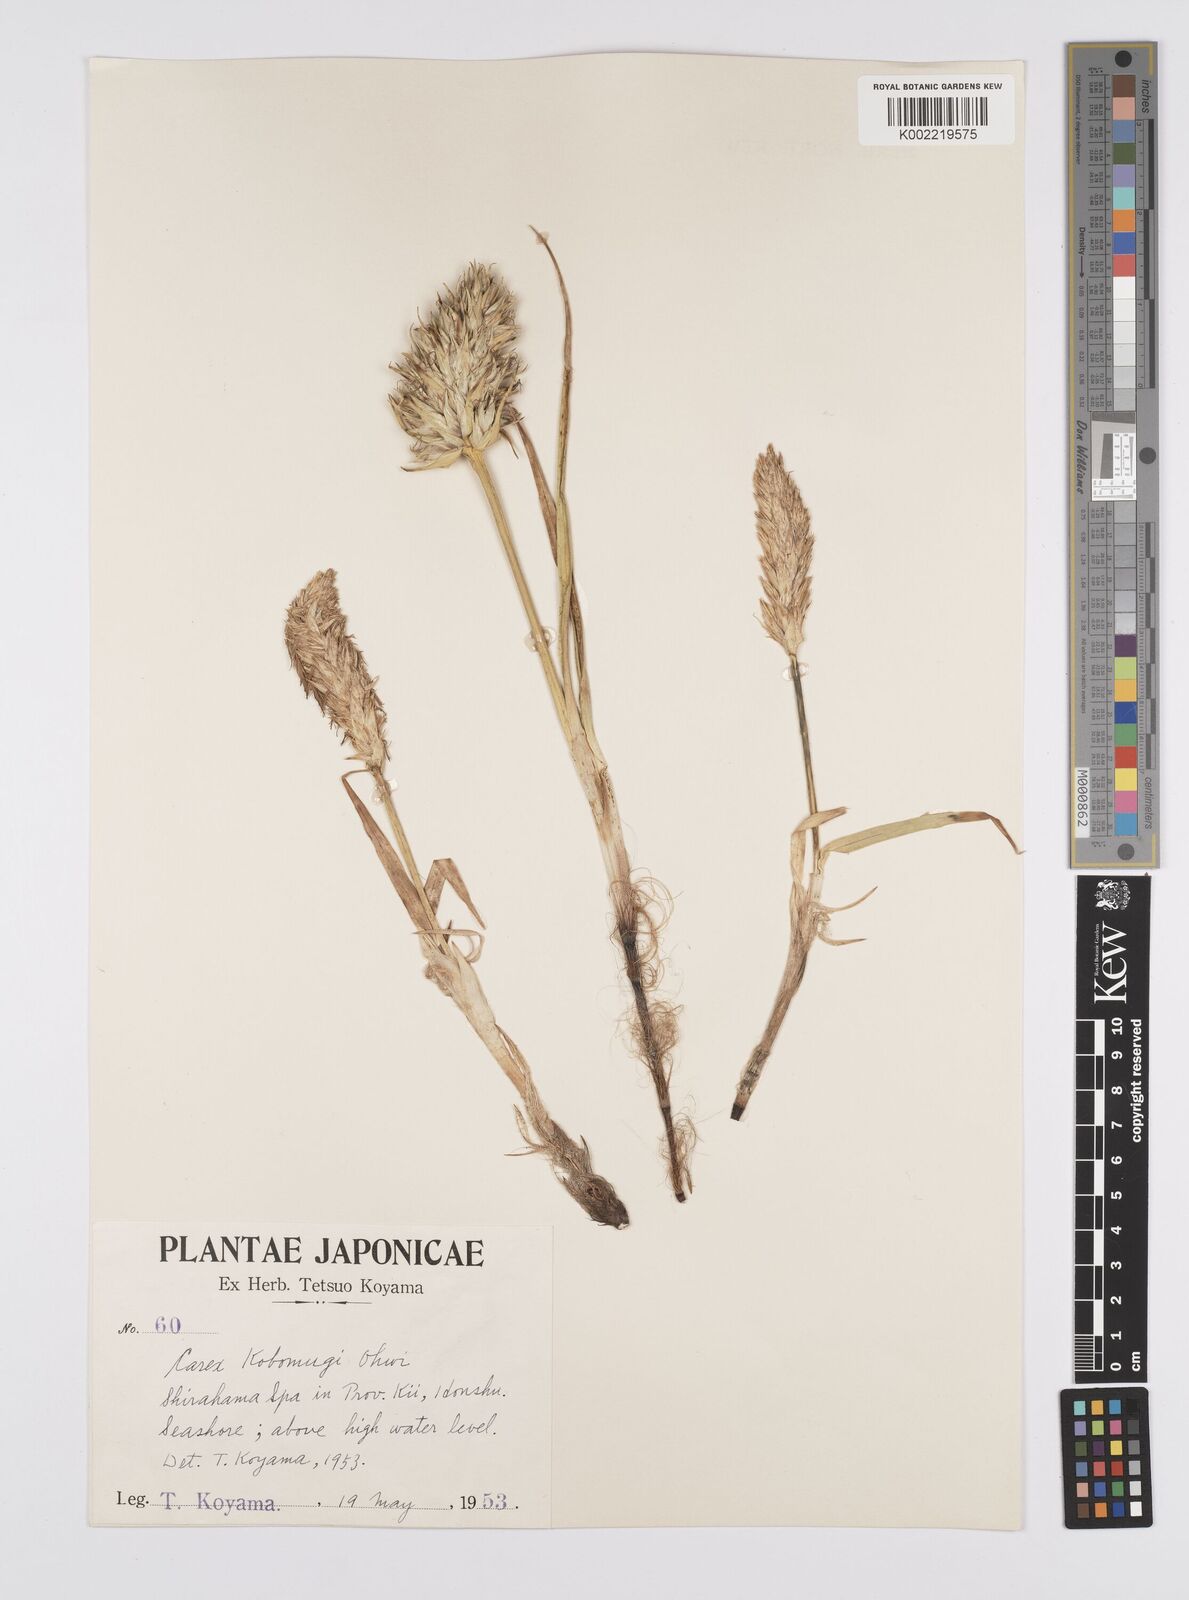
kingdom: Plantae
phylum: Tracheophyta
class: Liliopsida
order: Poales
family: Cyperaceae
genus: Carex
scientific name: Carex macrocephala
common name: Large-head sedge
